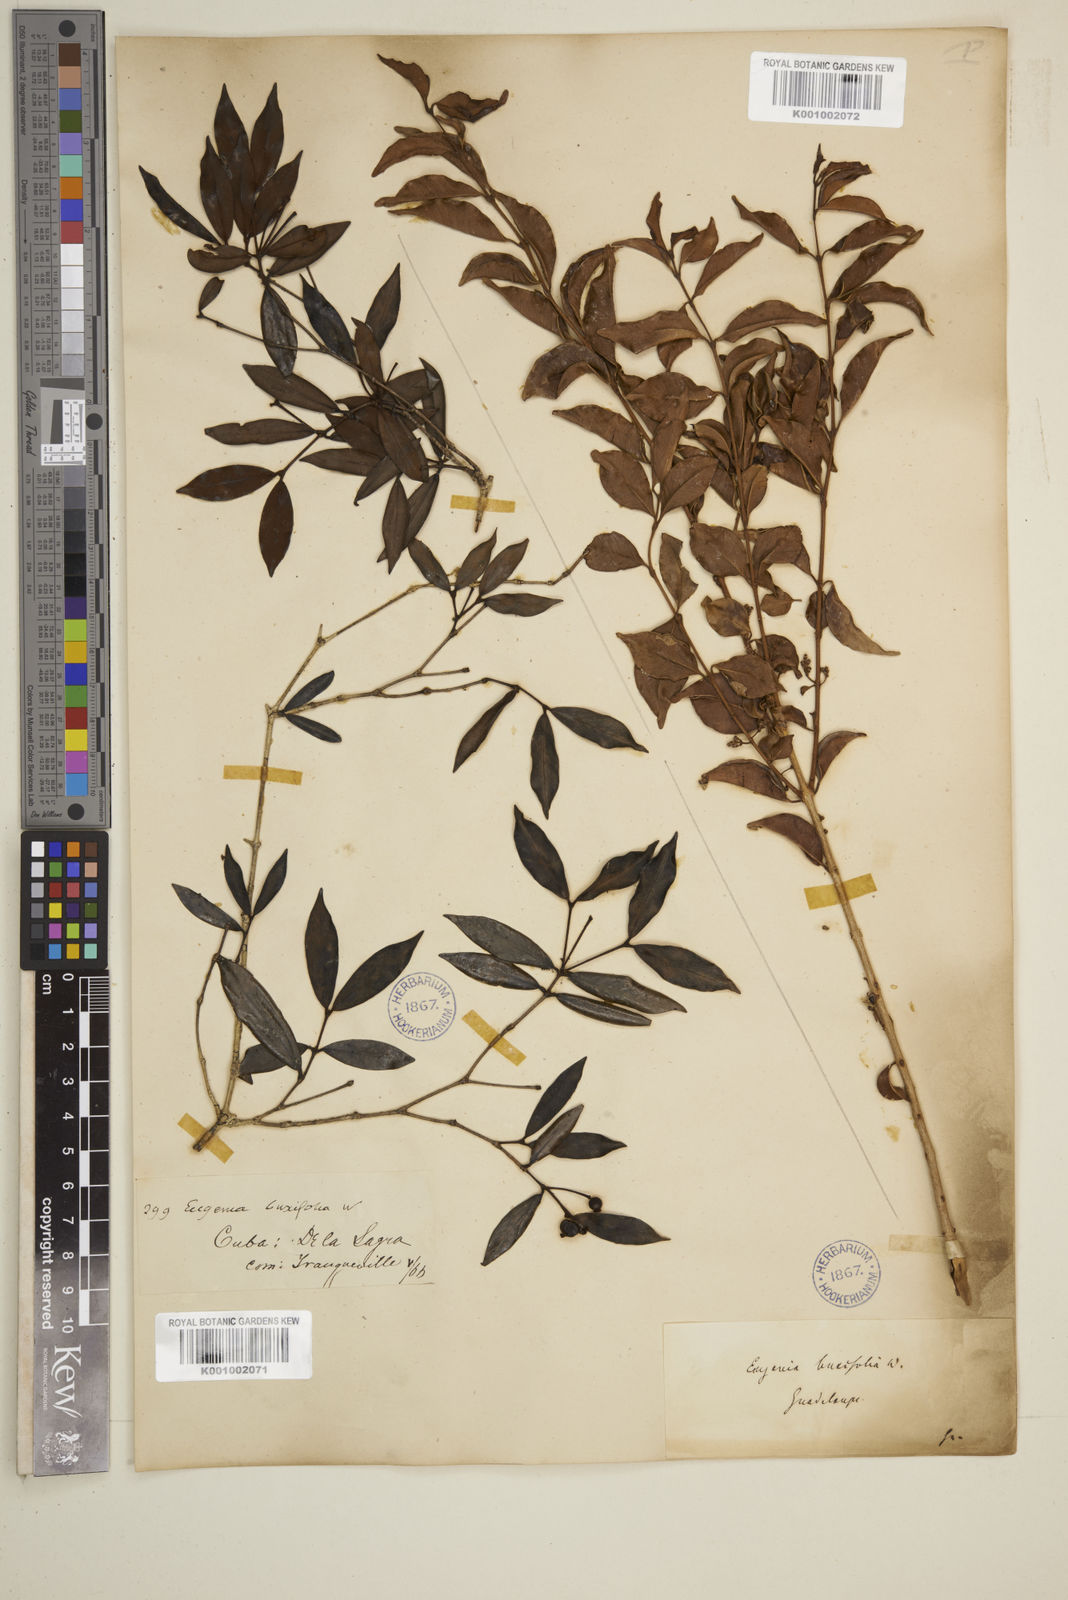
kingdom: Plantae
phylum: Tracheophyta
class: Magnoliopsida
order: Myrtales
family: Myrtaceae
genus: Eugenia
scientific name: Eugenia buxifolia
